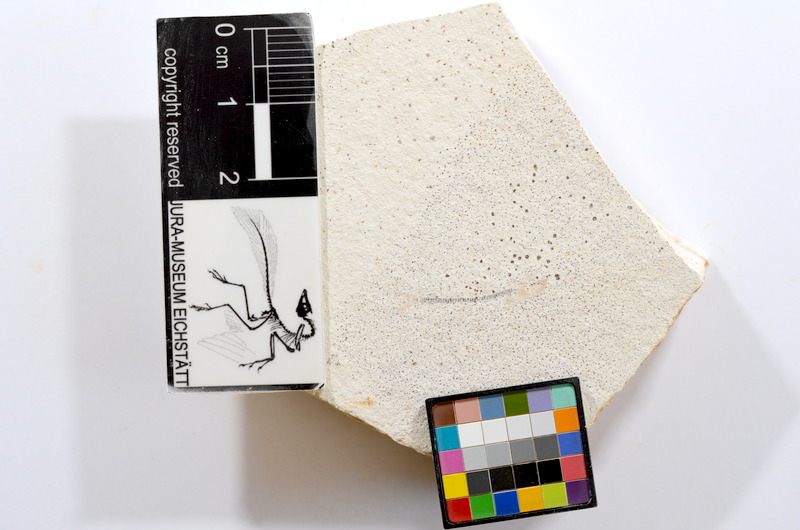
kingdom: Animalia
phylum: Chordata
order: Salmoniformes
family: Orthogonikleithridae
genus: Orthogonikleithrus
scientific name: Orthogonikleithrus hoelli
